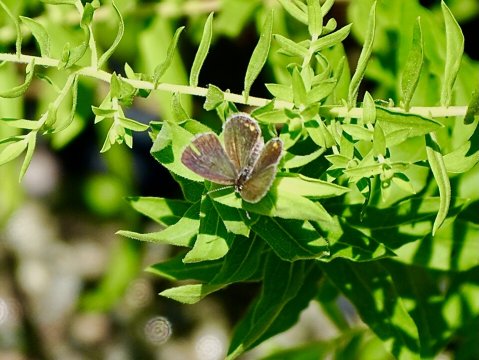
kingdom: Animalia
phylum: Arthropoda
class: Insecta
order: Lepidoptera
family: Lycaenidae
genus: Elkalyce
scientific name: Elkalyce comyntas
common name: Eastern Tailed-Blue
